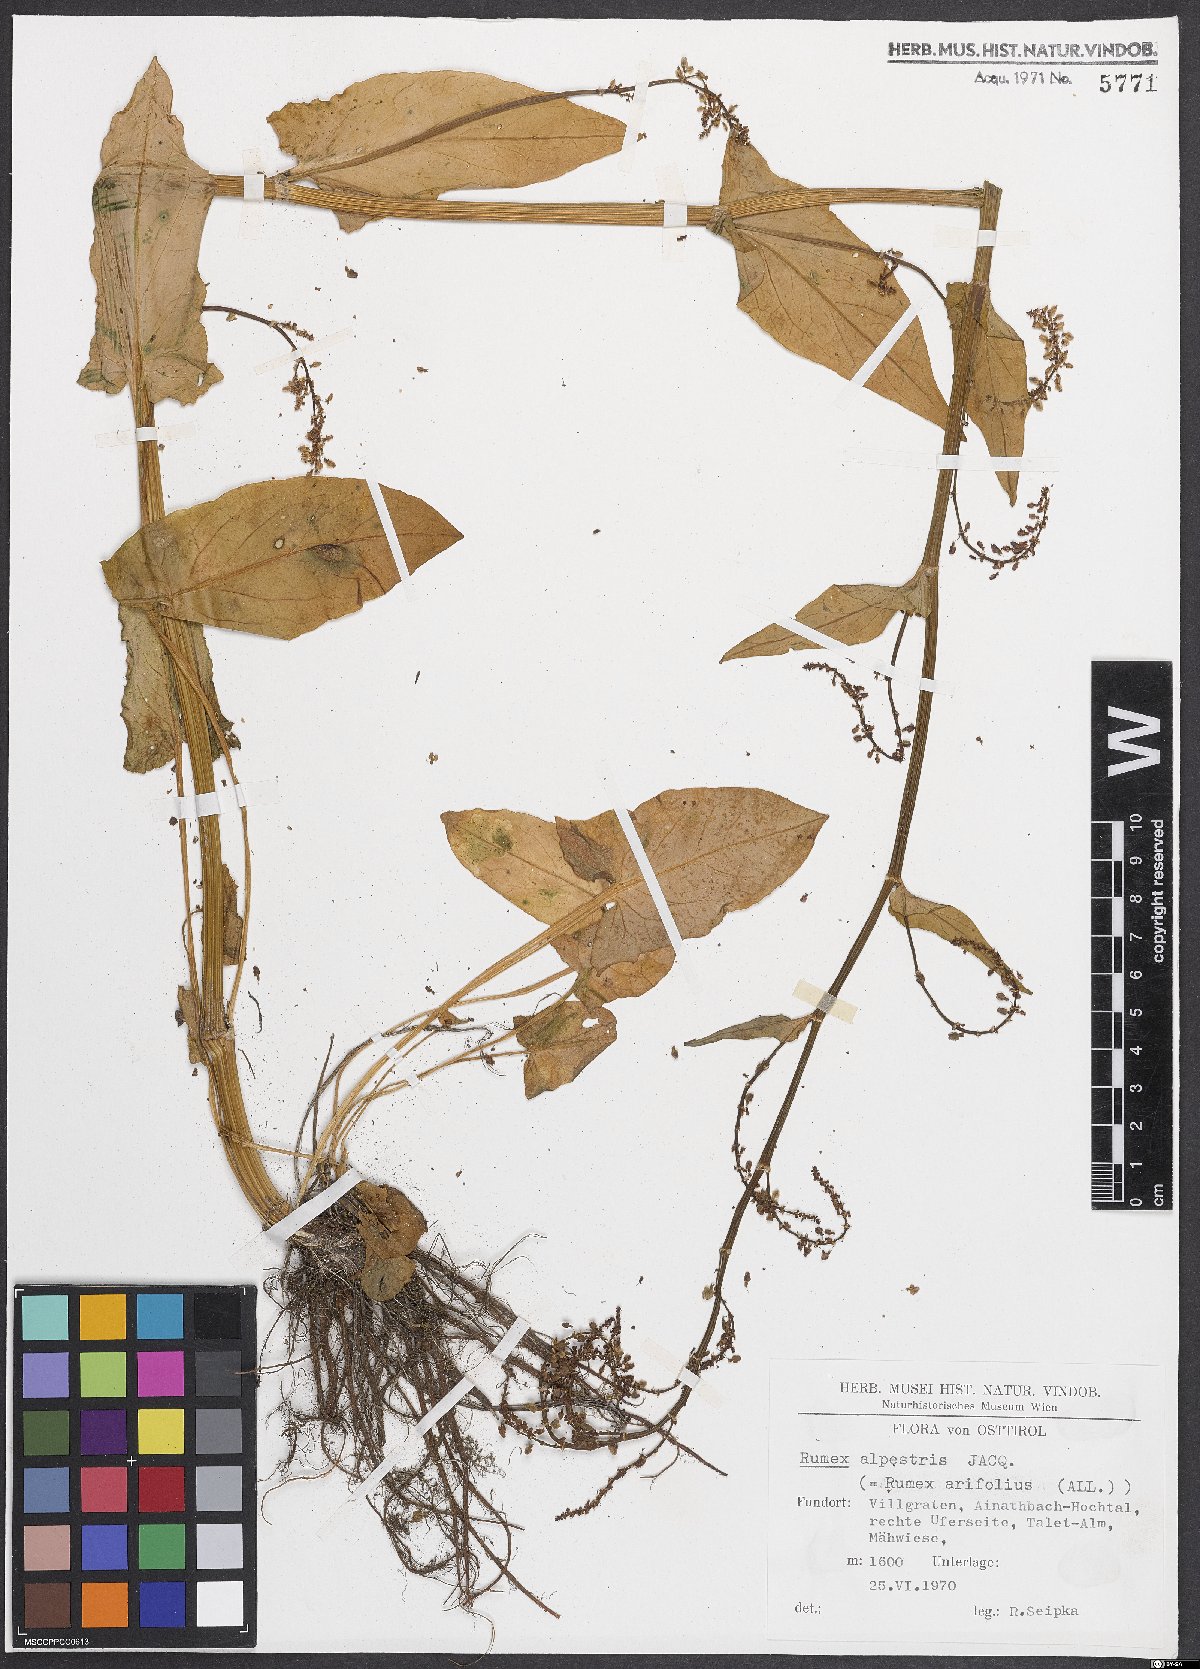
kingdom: Plantae
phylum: Tracheophyta
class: Magnoliopsida
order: Caryophyllales
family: Polygonaceae
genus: Rumex
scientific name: Rumex arifolius
